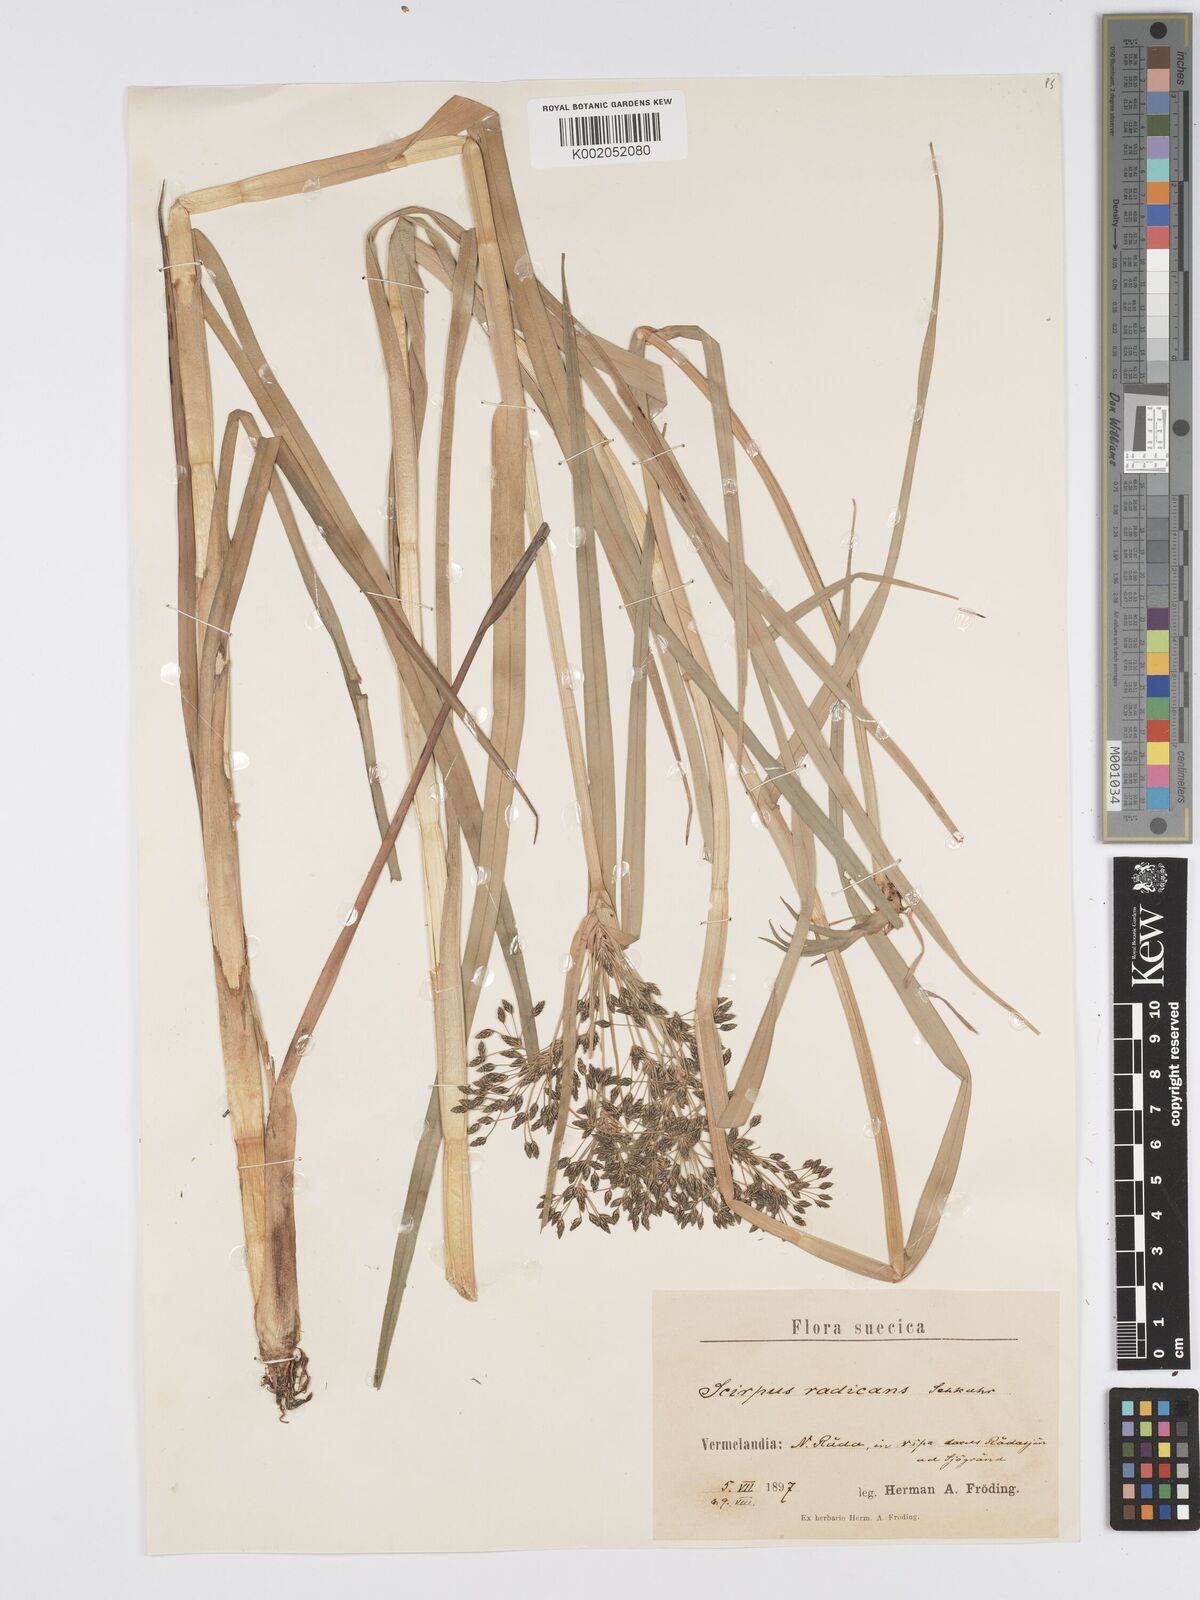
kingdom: Plantae
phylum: Tracheophyta
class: Liliopsida
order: Poales
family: Cyperaceae
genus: Scirpus
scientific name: Scirpus radicans
